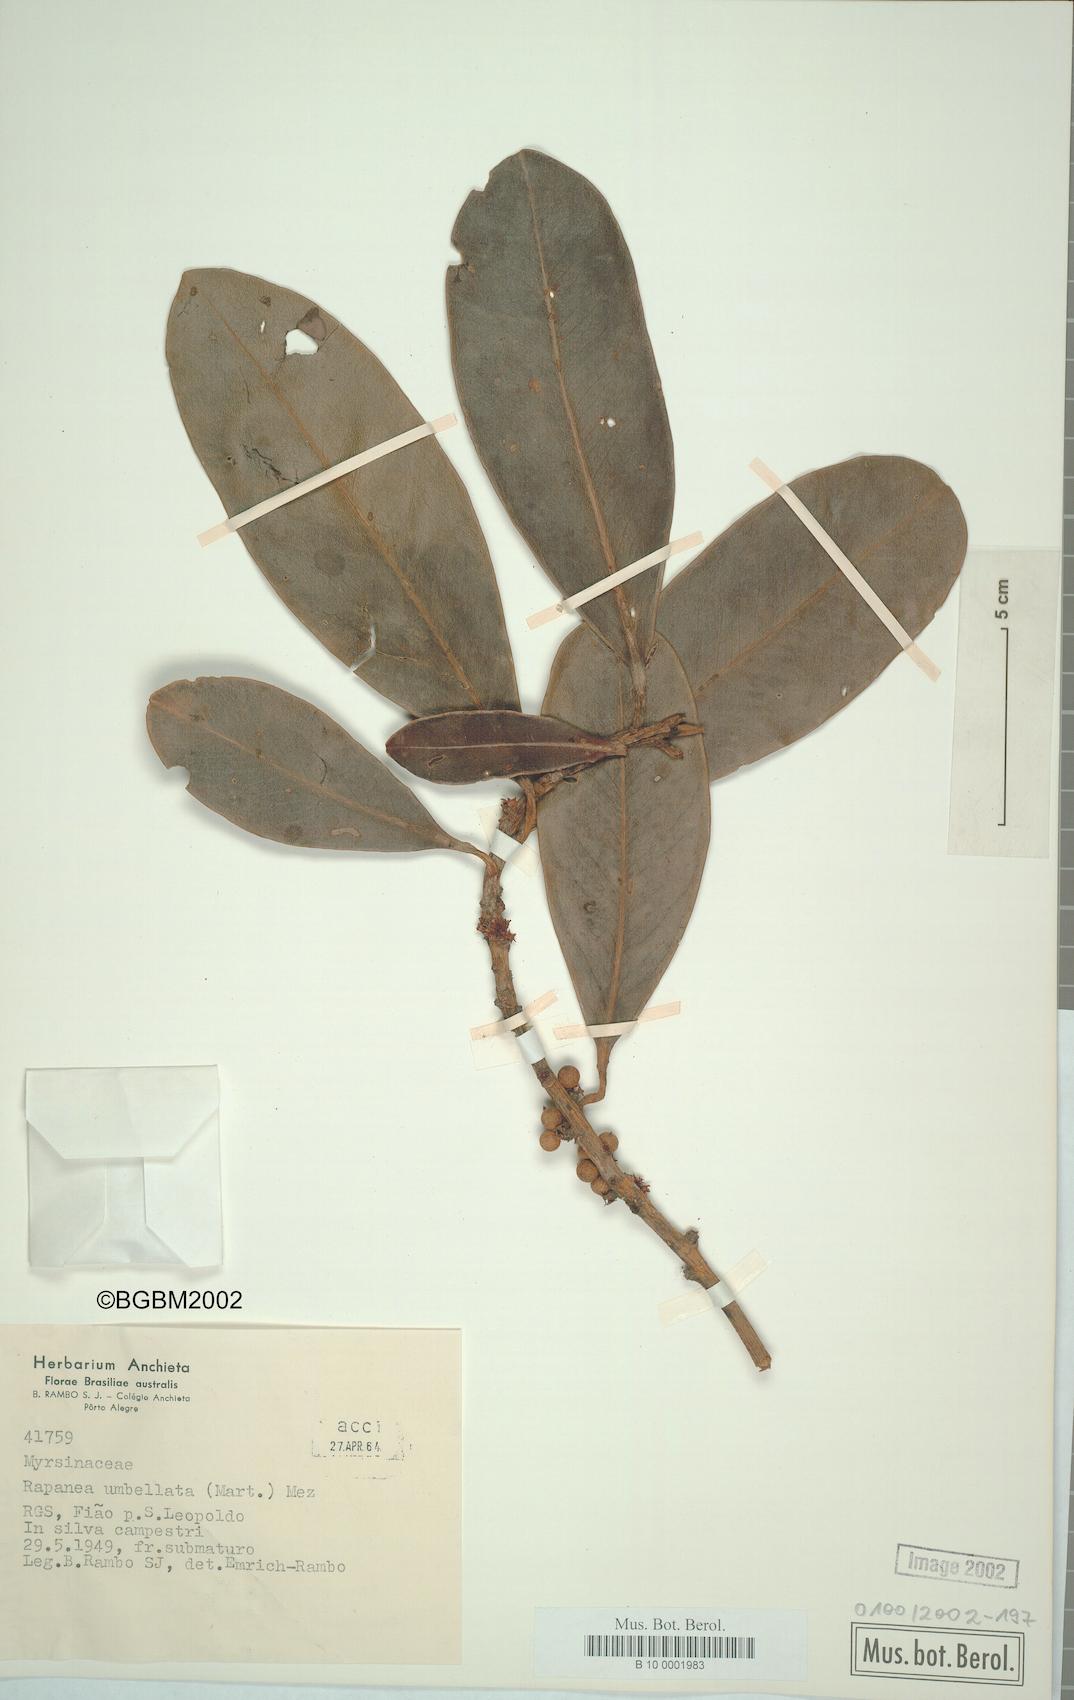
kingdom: Plantae
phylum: Tracheophyta
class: Magnoliopsida
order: Ericales
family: Primulaceae
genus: Myrsine
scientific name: Myrsine umbellata
